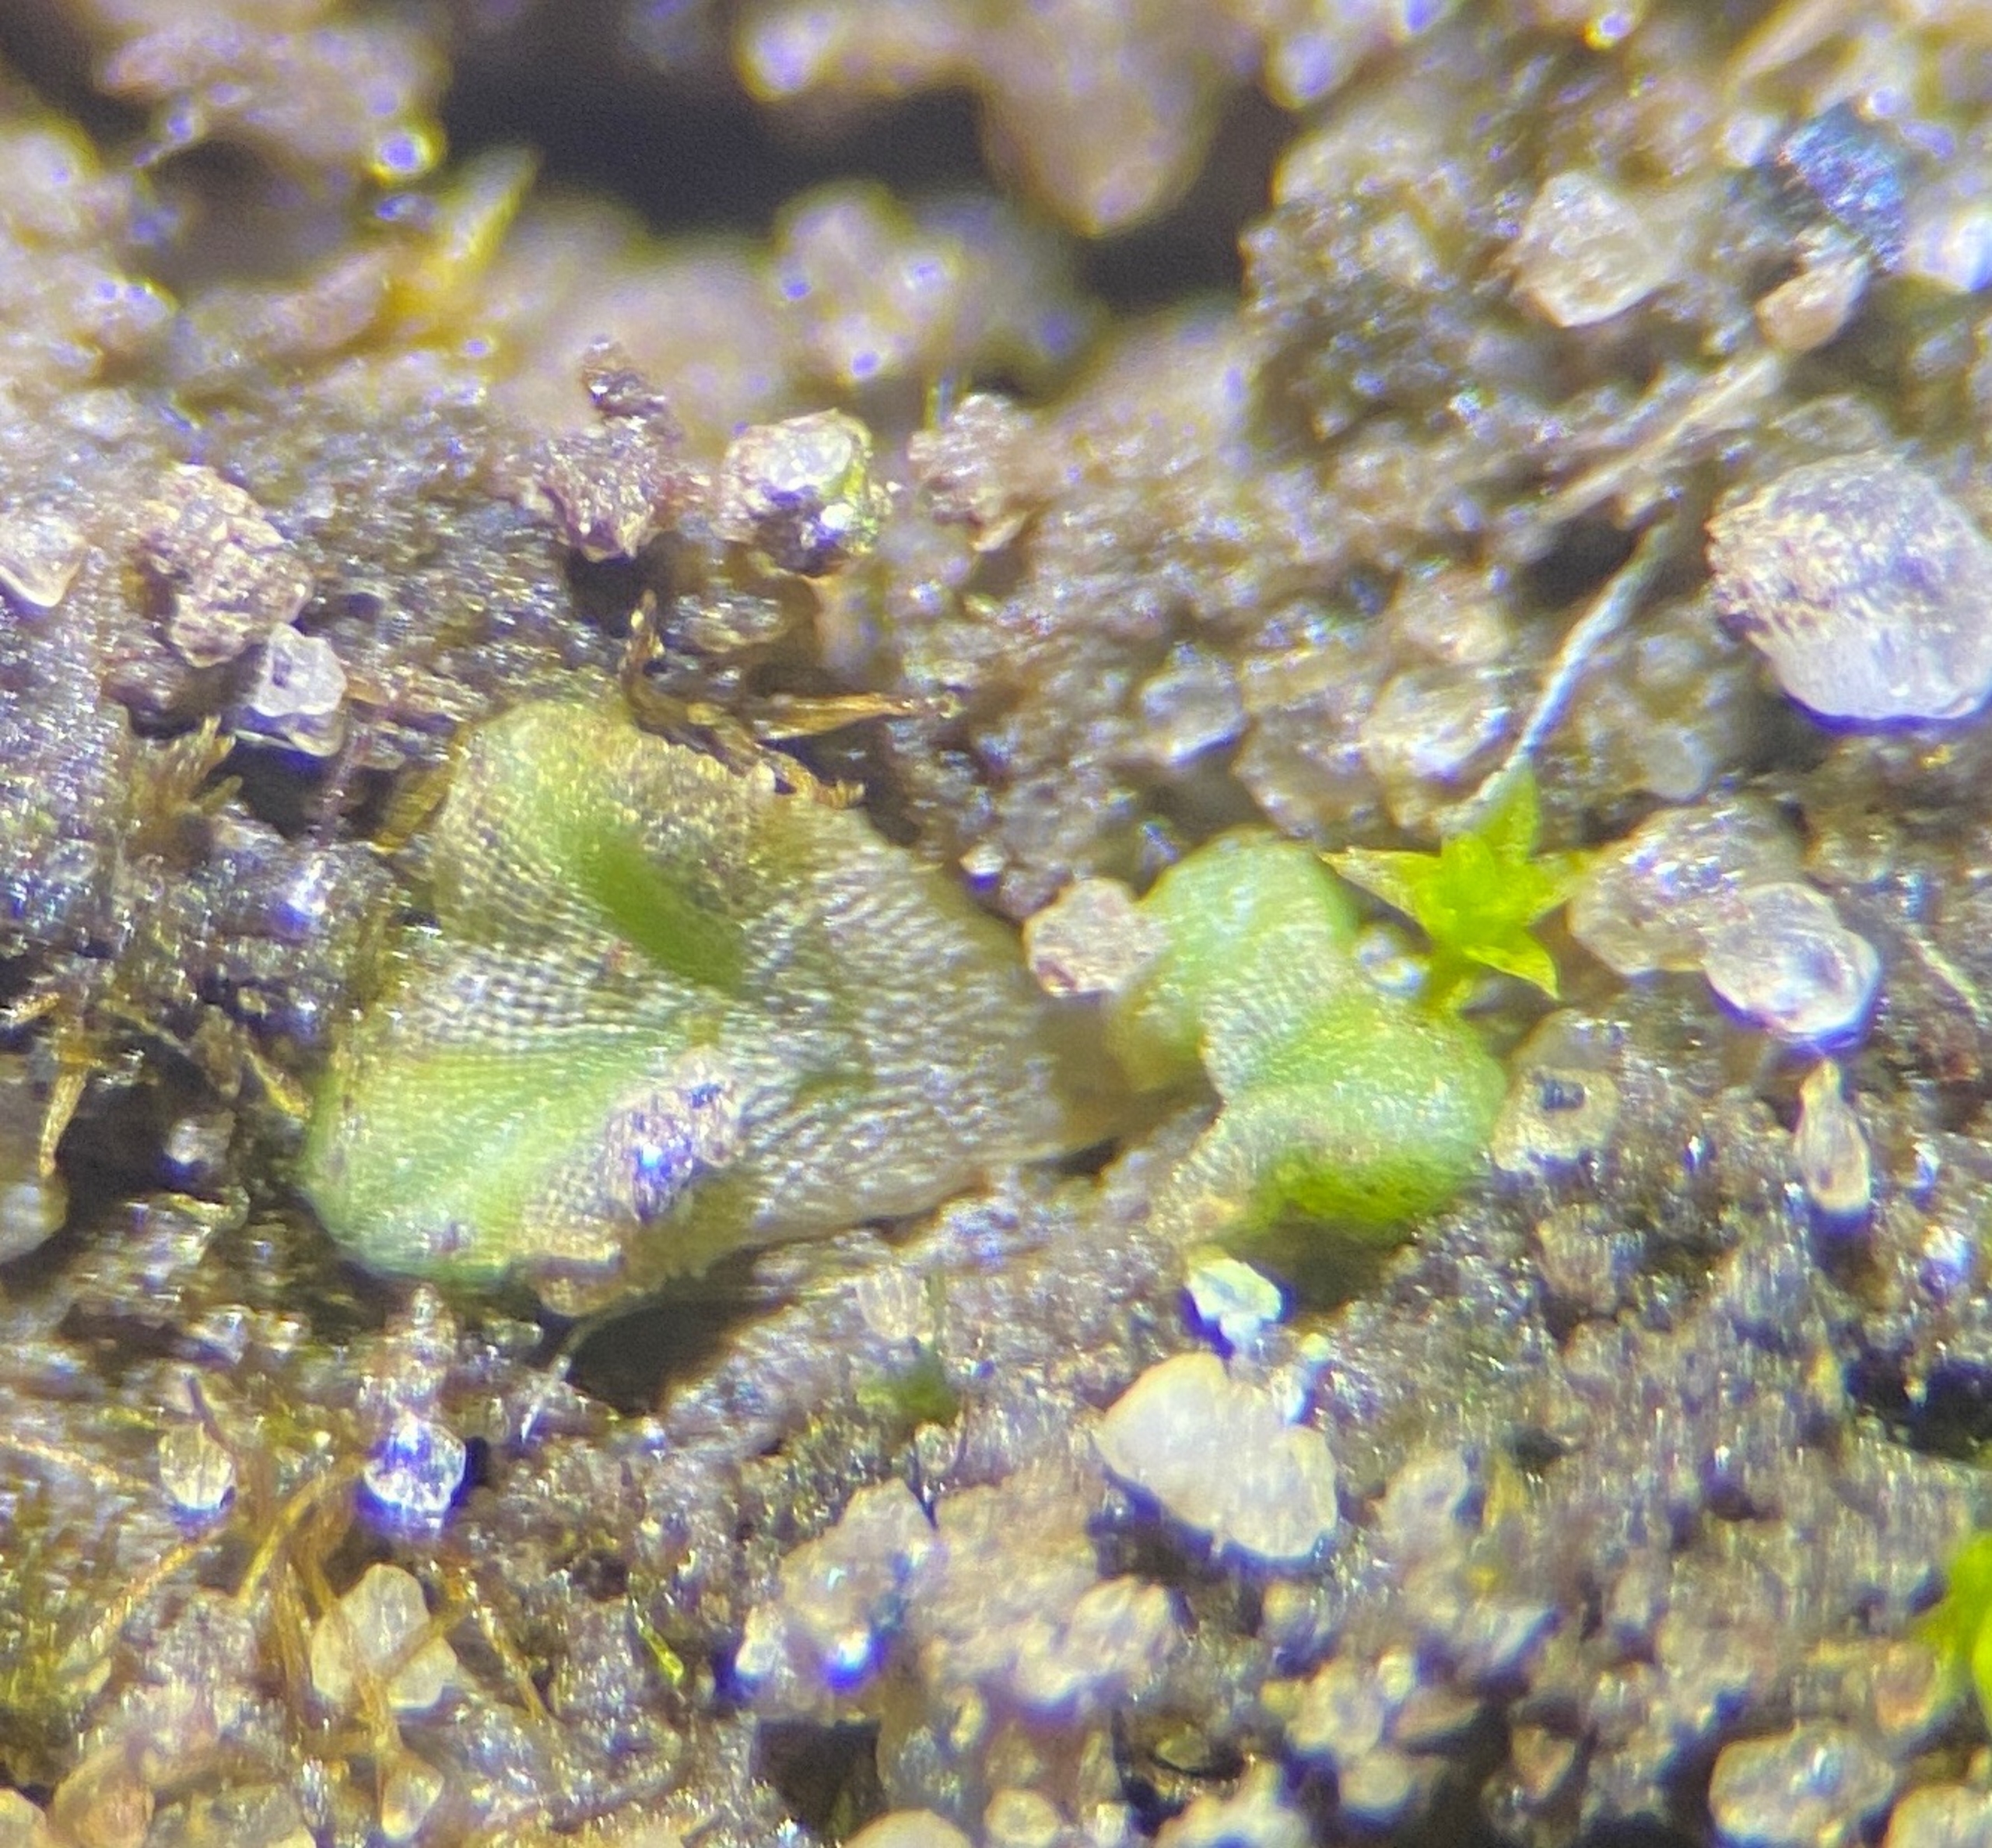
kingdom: Plantae
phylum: Marchantiophyta
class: Marchantiopsida
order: Marchantiales
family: Ricciaceae
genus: Riccia
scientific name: Riccia sorocarpa
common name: Almindelig stjerneløv
